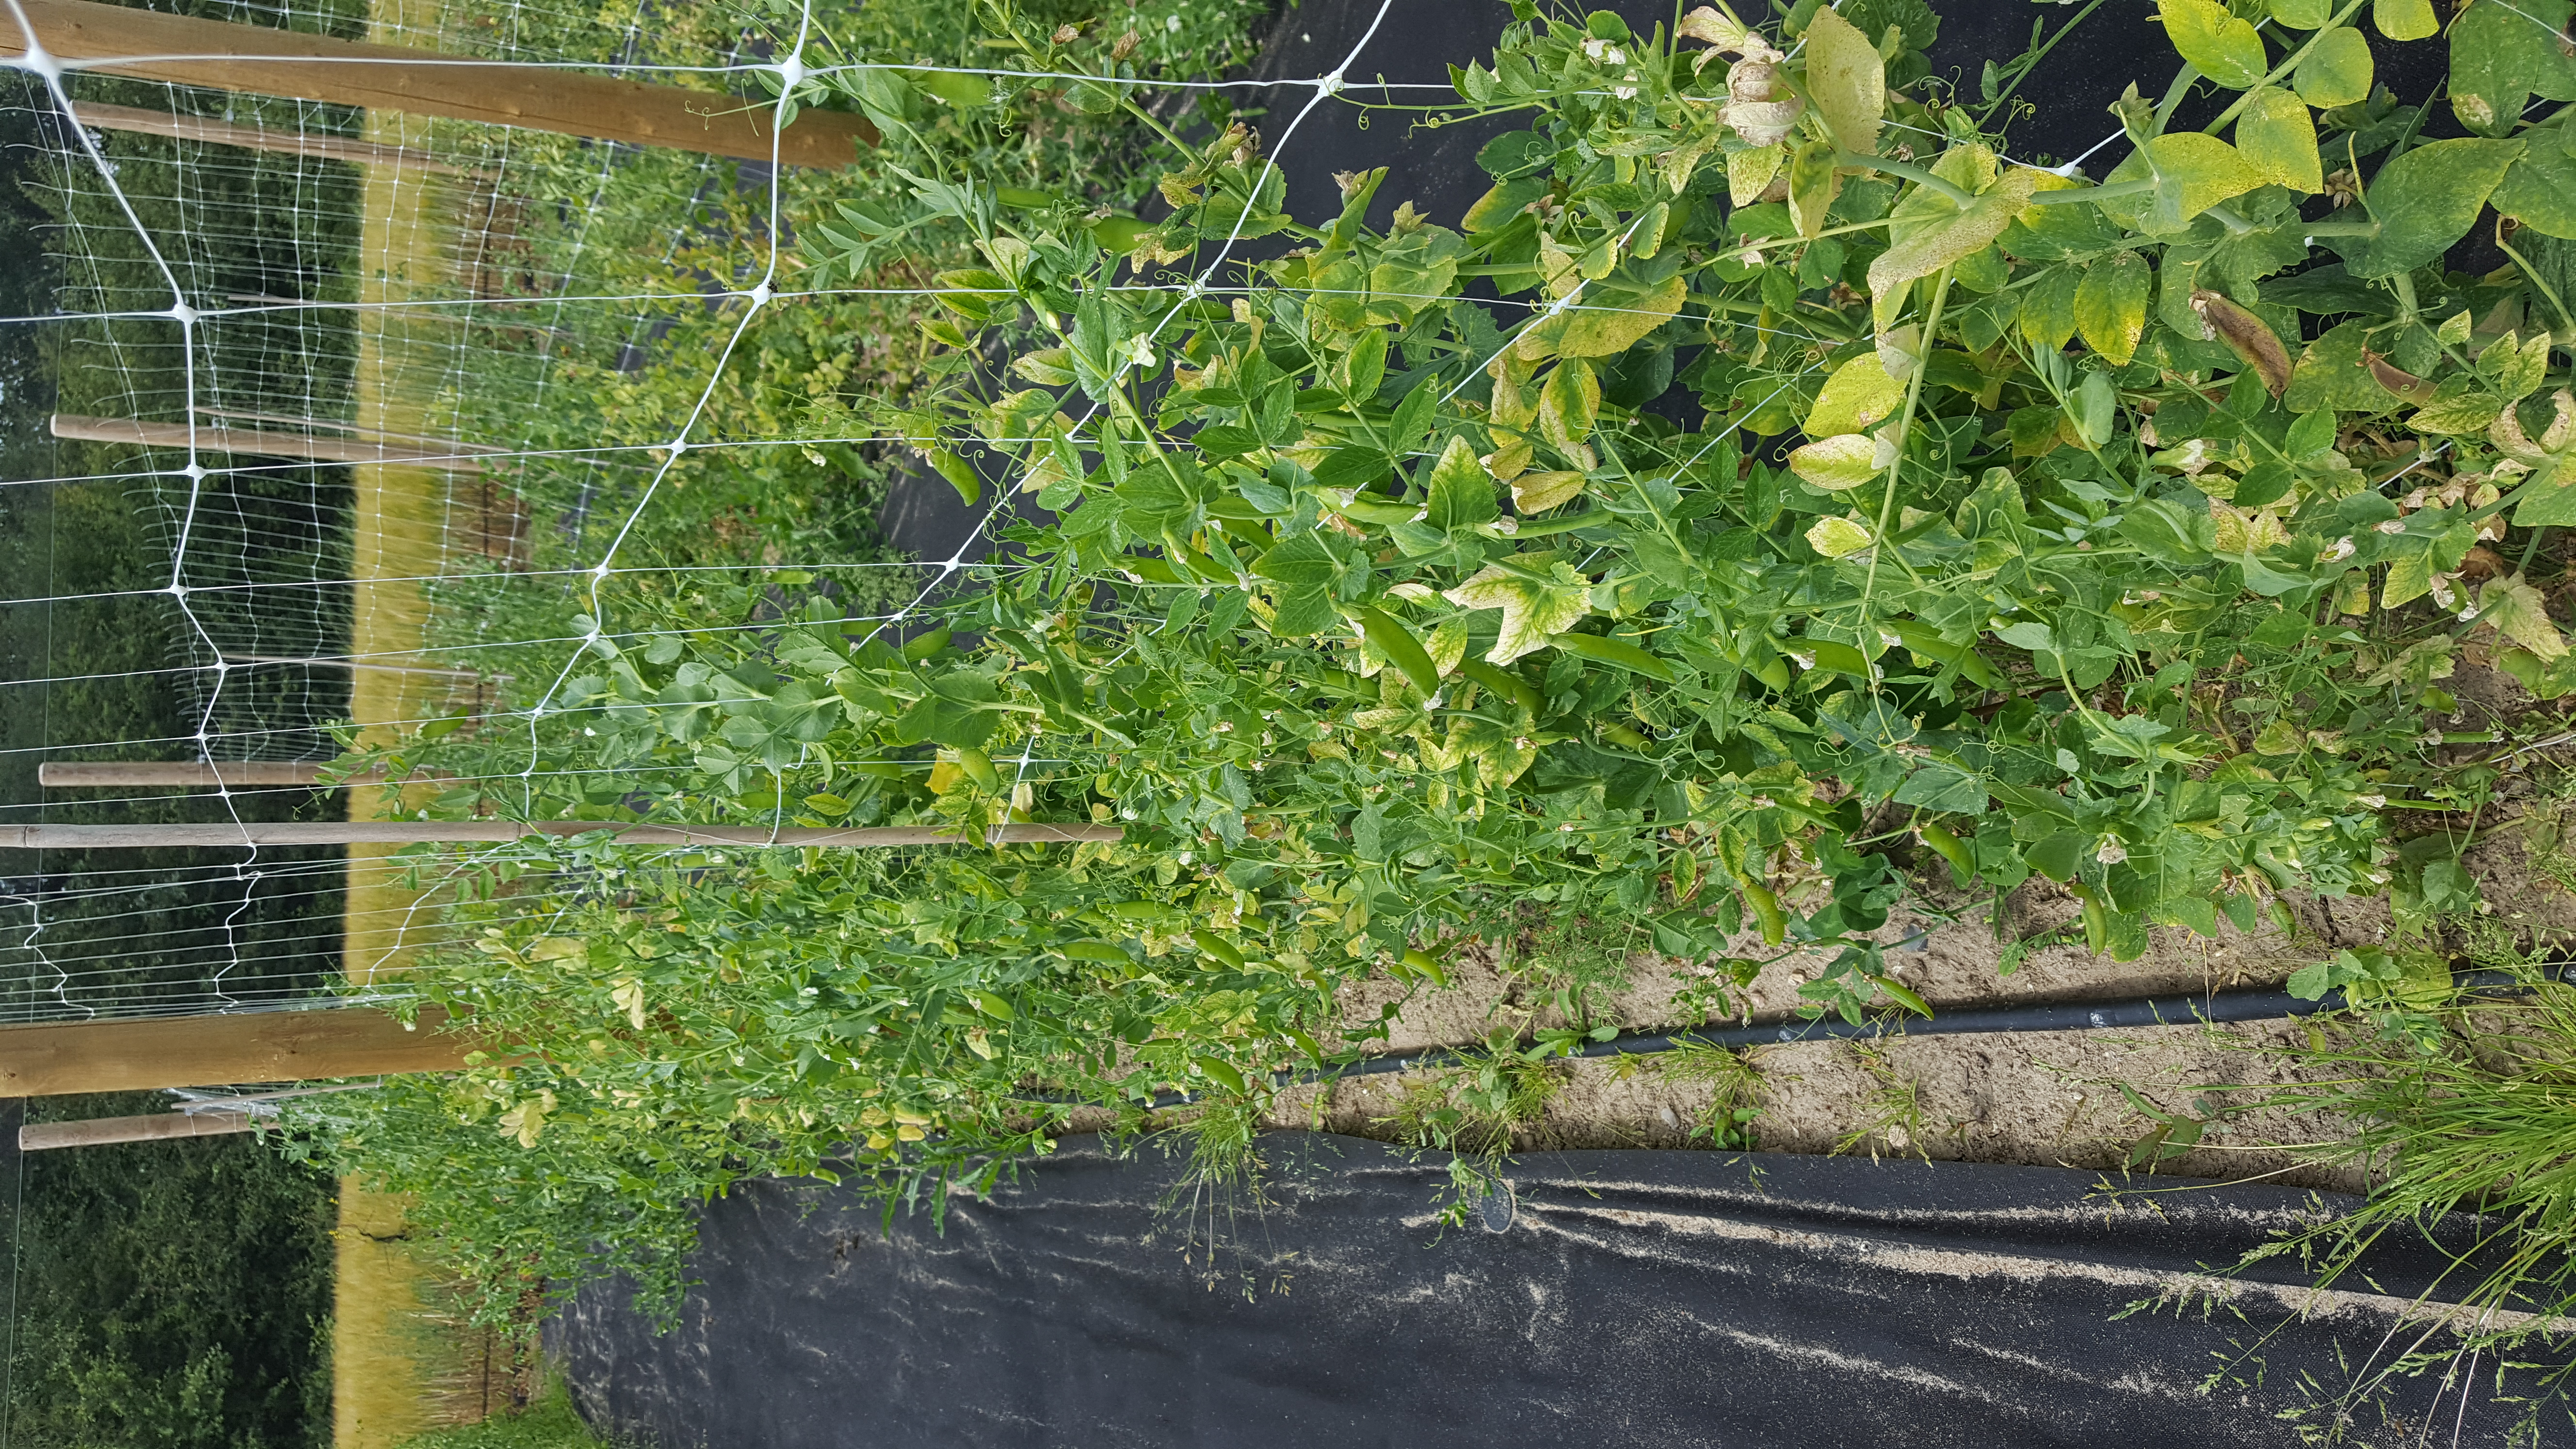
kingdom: Plantae
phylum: Tracheophyta
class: Magnoliopsida
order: Fabales
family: Fabaceae
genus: Lathyrus
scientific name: Lathyrus oleraceus
